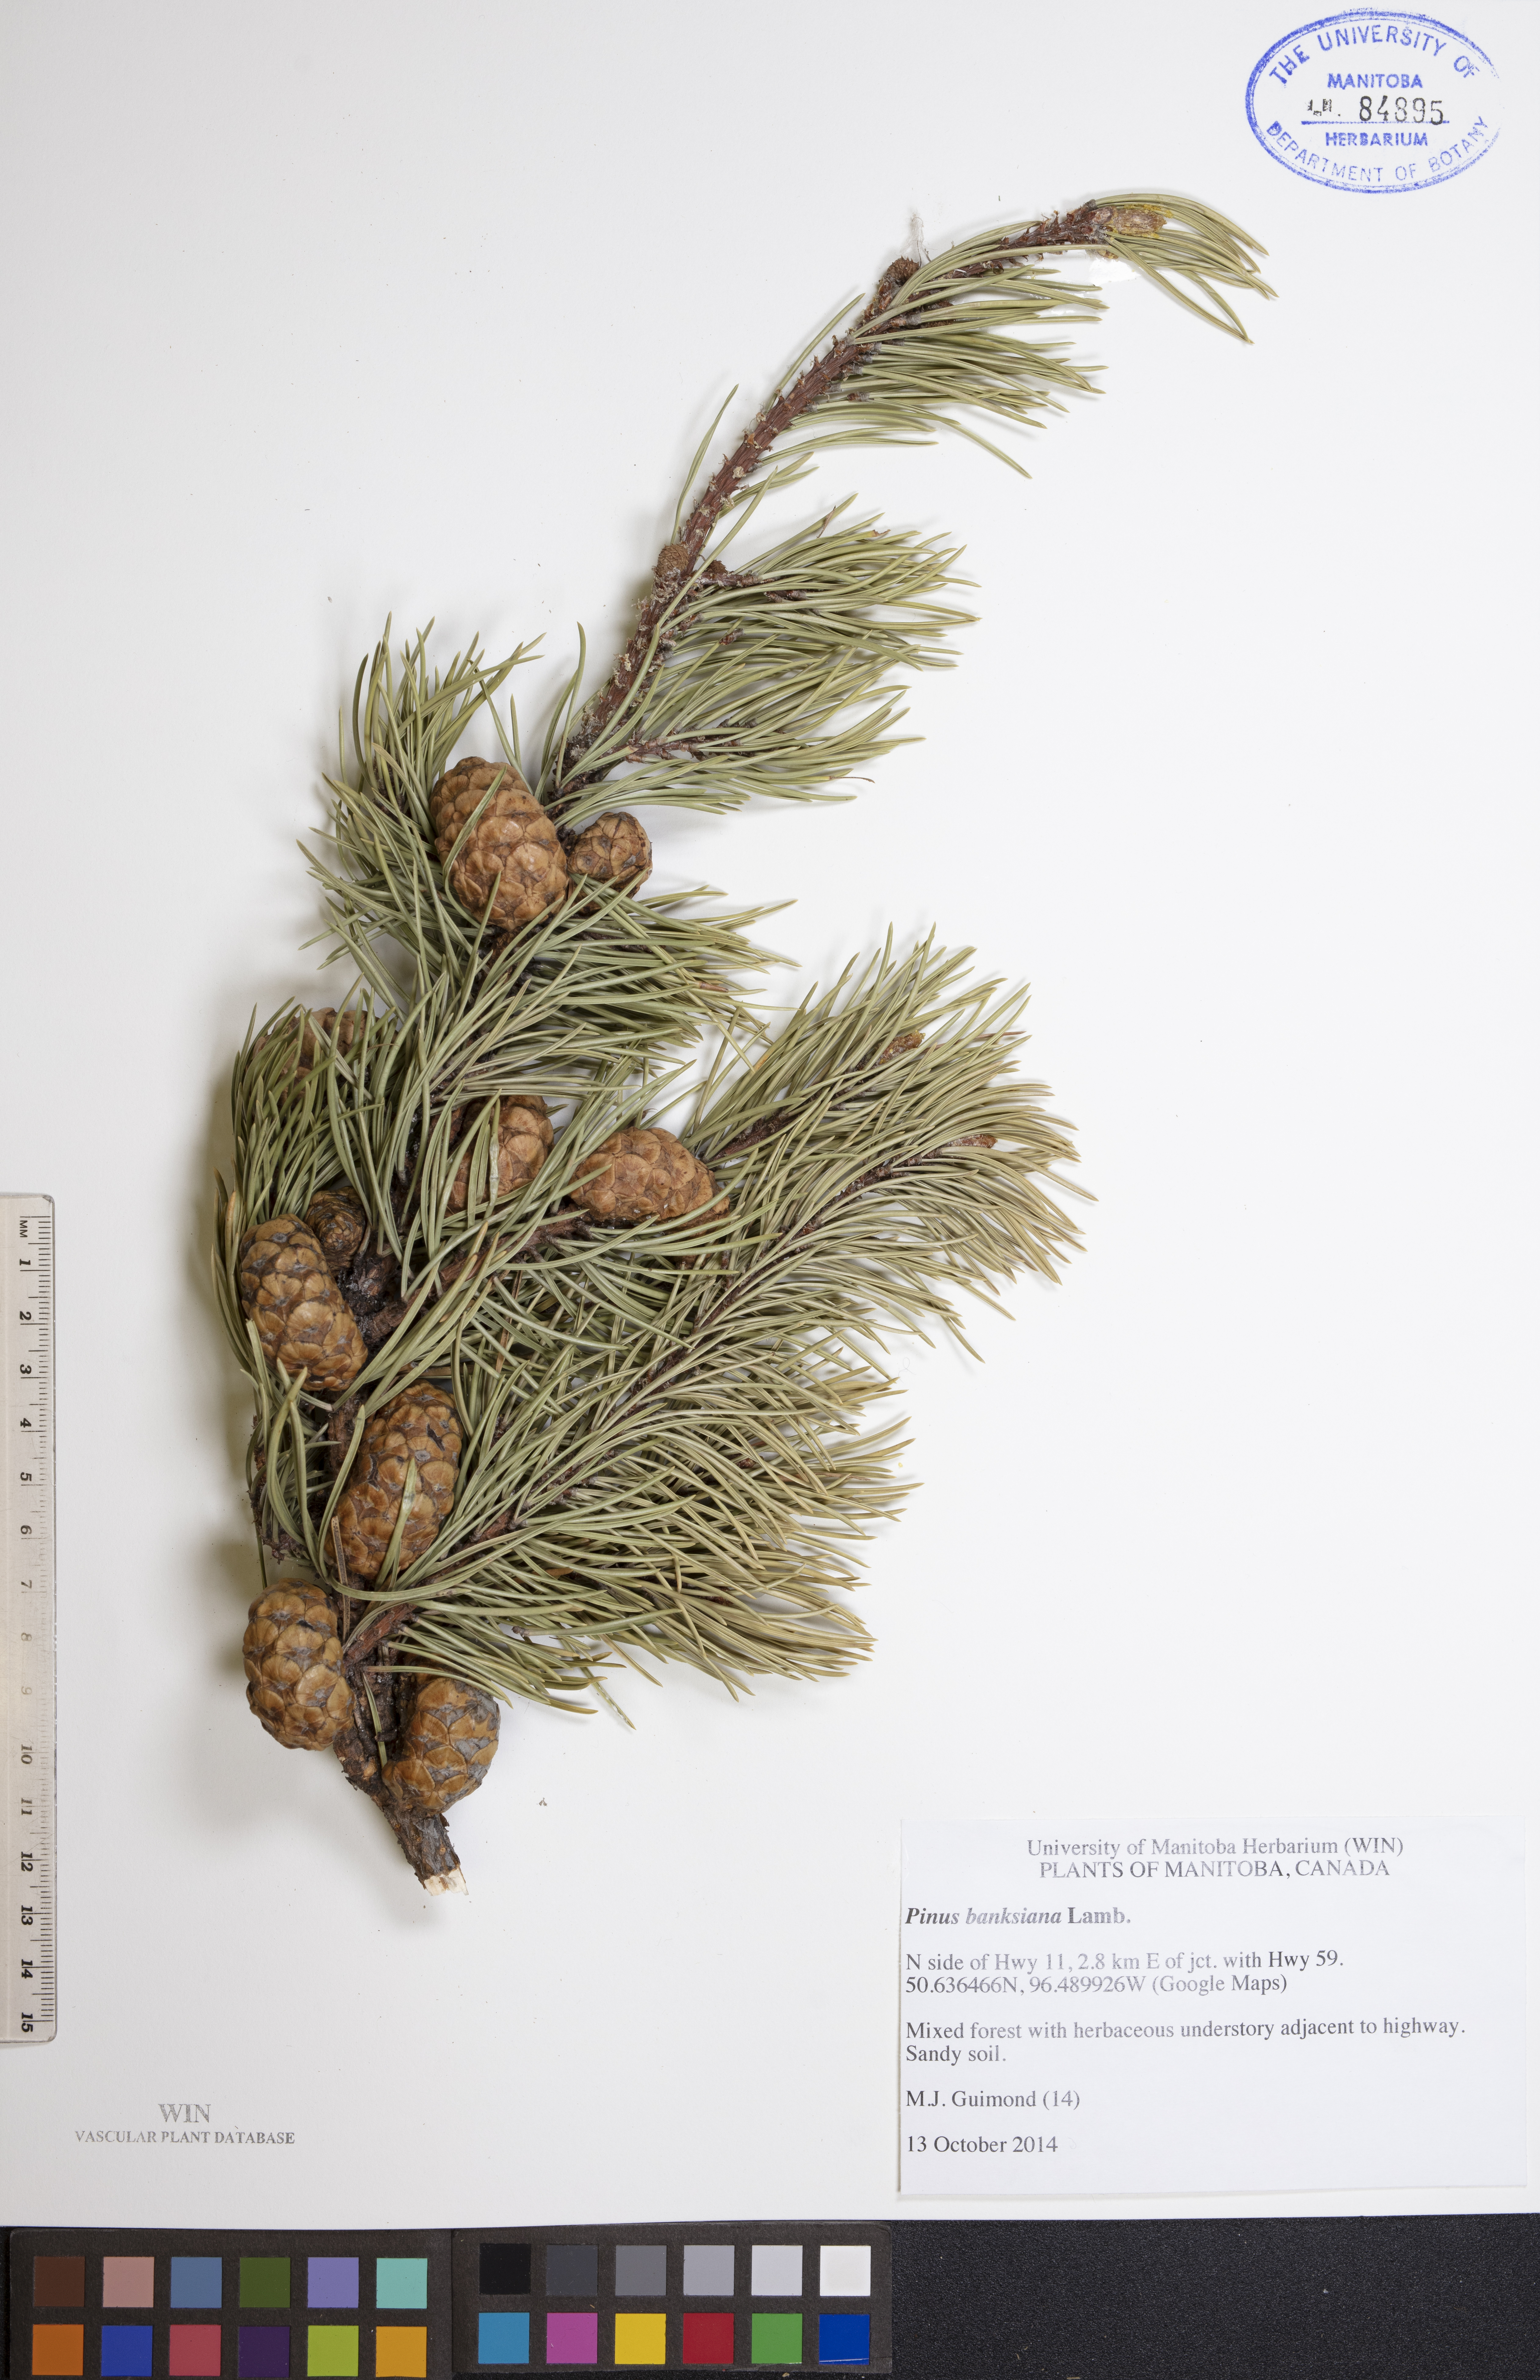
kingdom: Plantae
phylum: Tracheophyta
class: Pinopsida
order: Pinales
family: Pinaceae
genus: Pinus
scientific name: Pinus banksiana
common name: Jack pine
